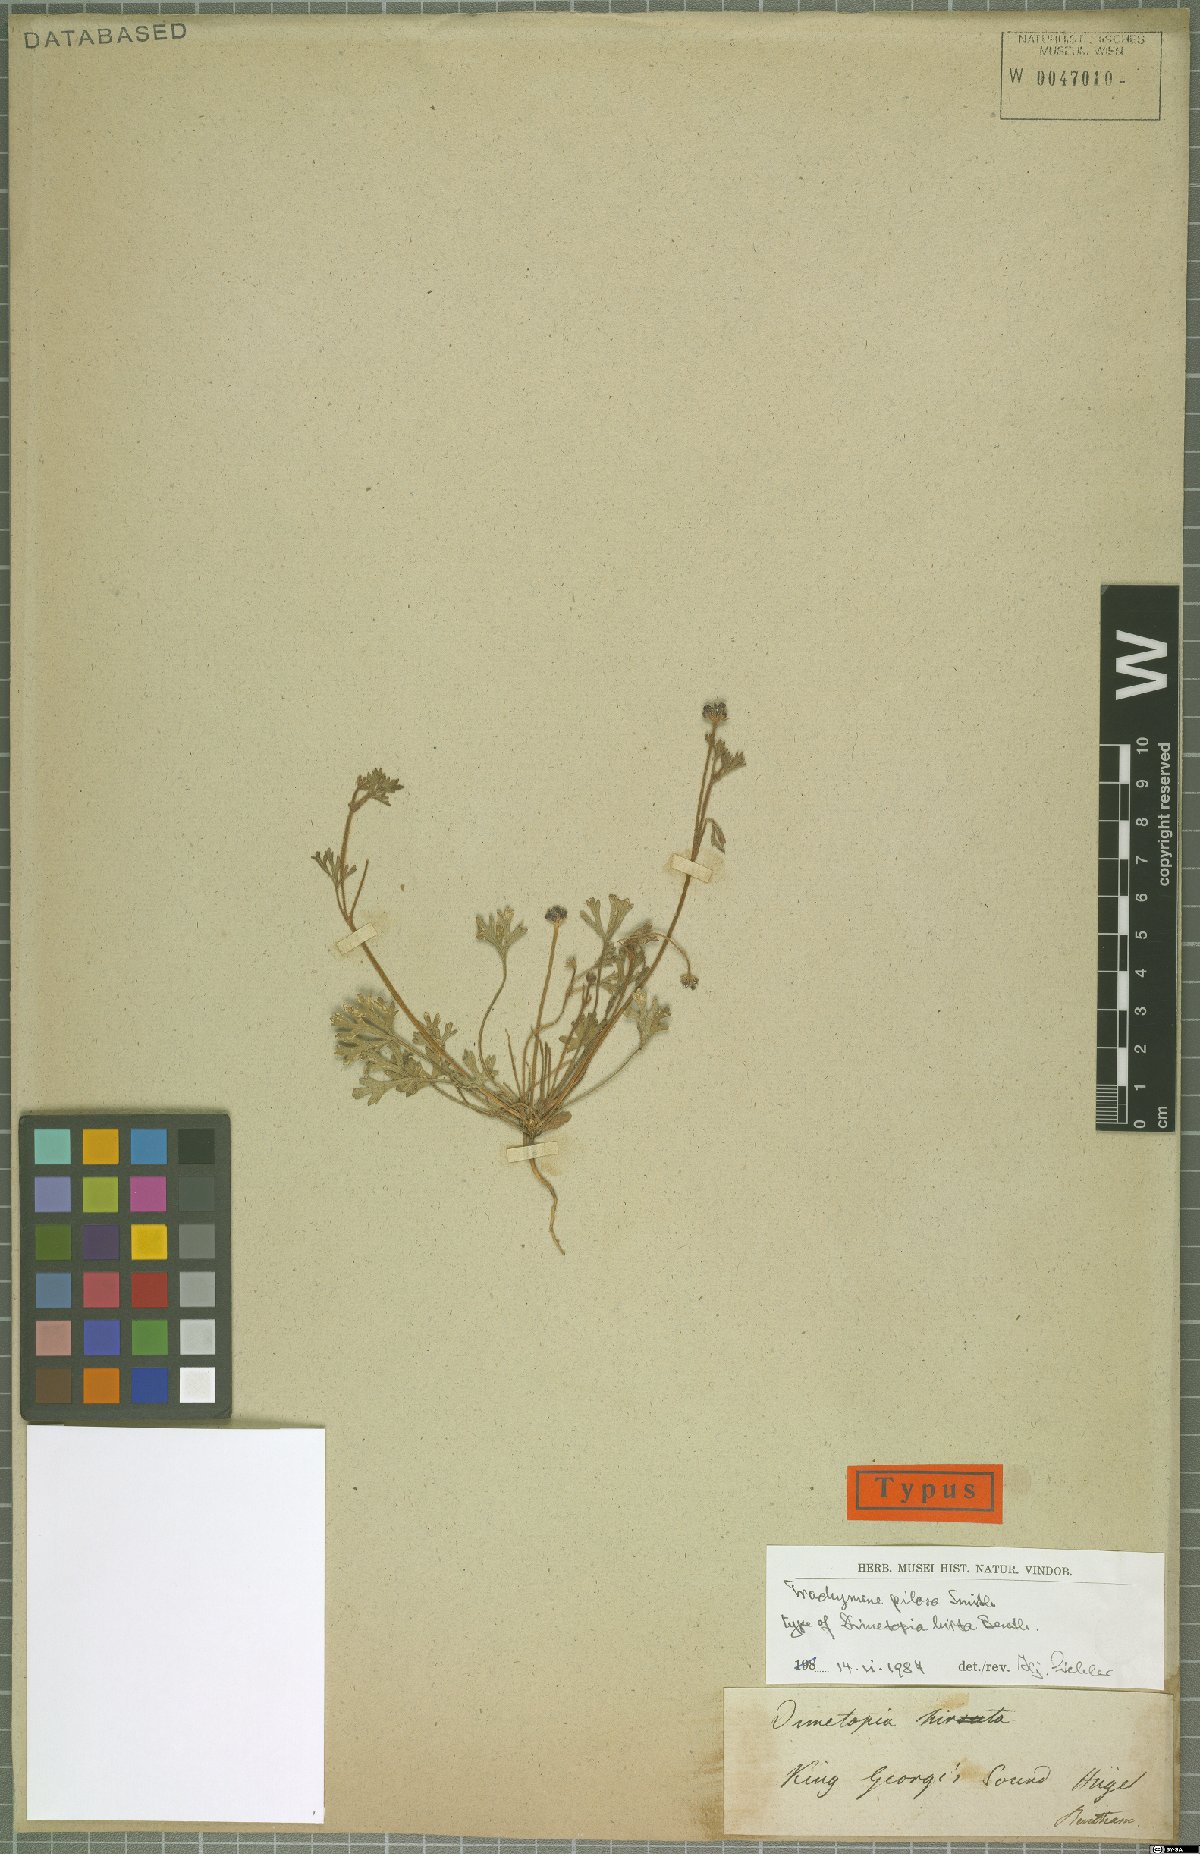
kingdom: Plantae
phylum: Tracheophyta
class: Magnoliopsida
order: Apiales
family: Araliaceae
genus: Trachymene
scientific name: Trachymene pilosa
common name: Dwarf trachymene
